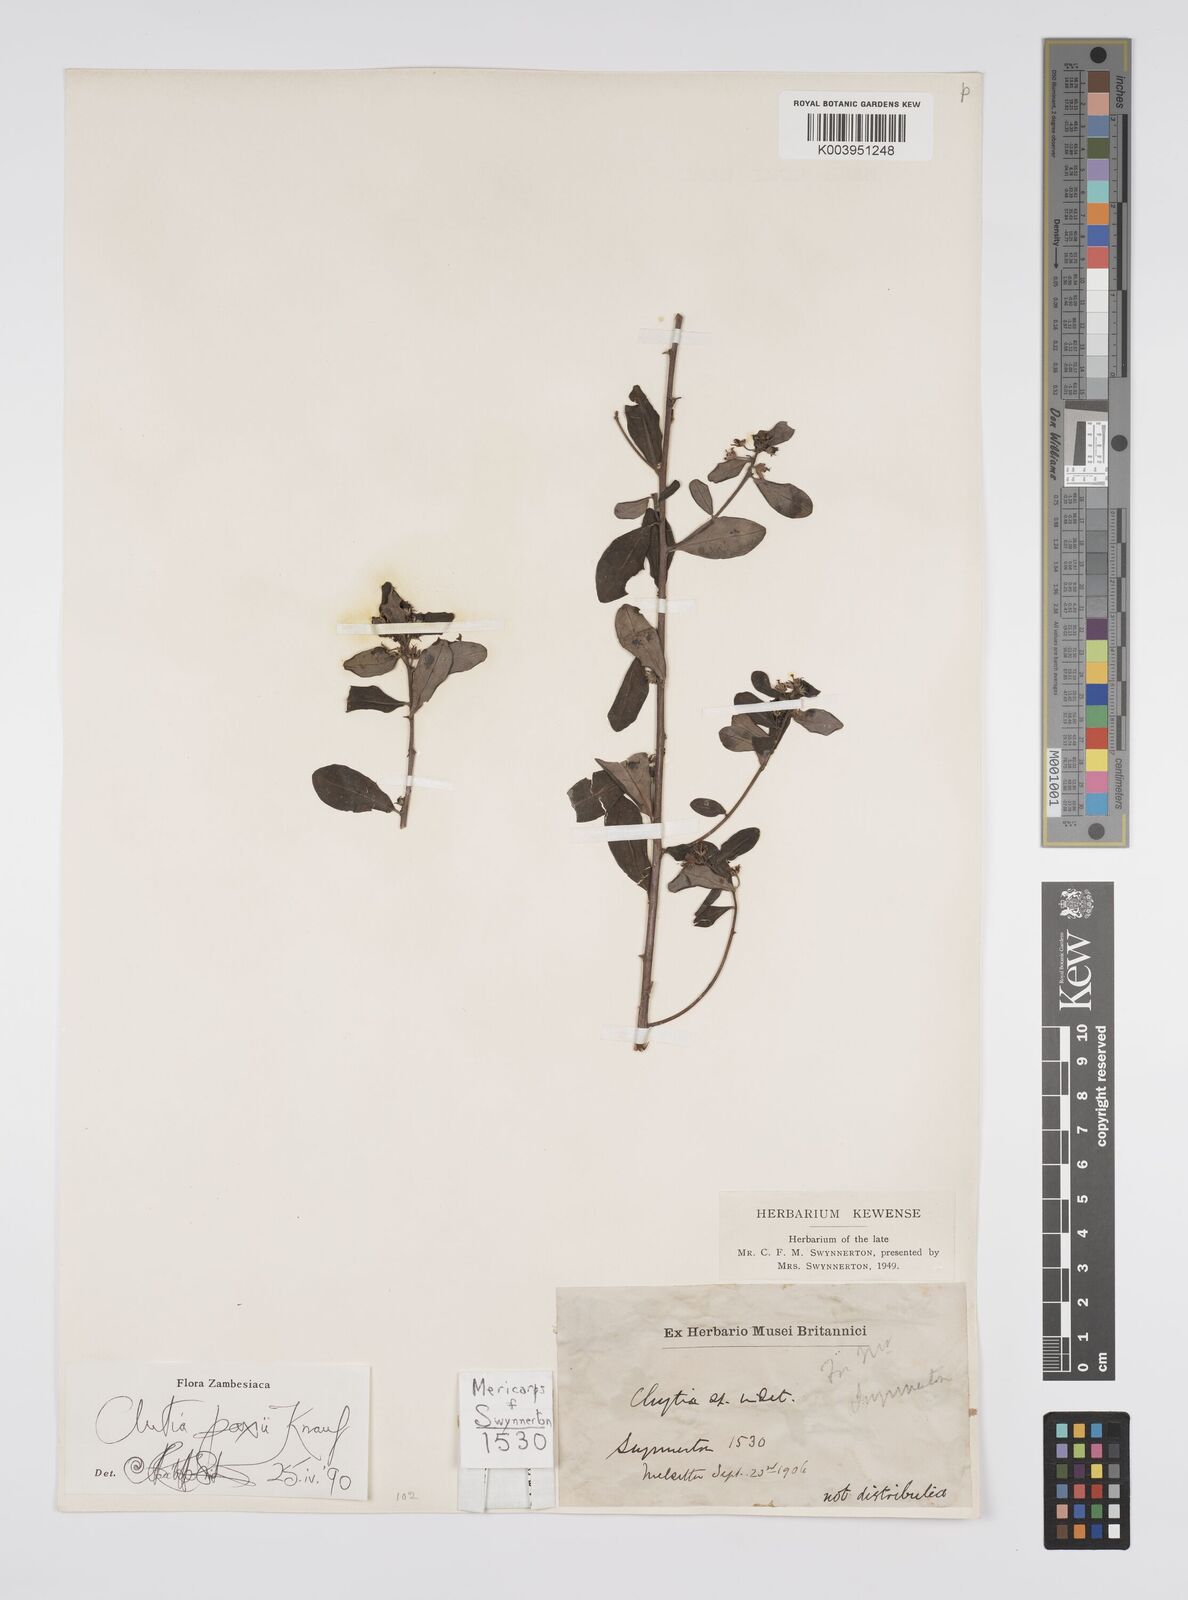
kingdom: Plantae
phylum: Tracheophyta
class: Magnoliopsida
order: Malpighiales
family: Peraceae
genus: Clutia
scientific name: Clutia paxii
